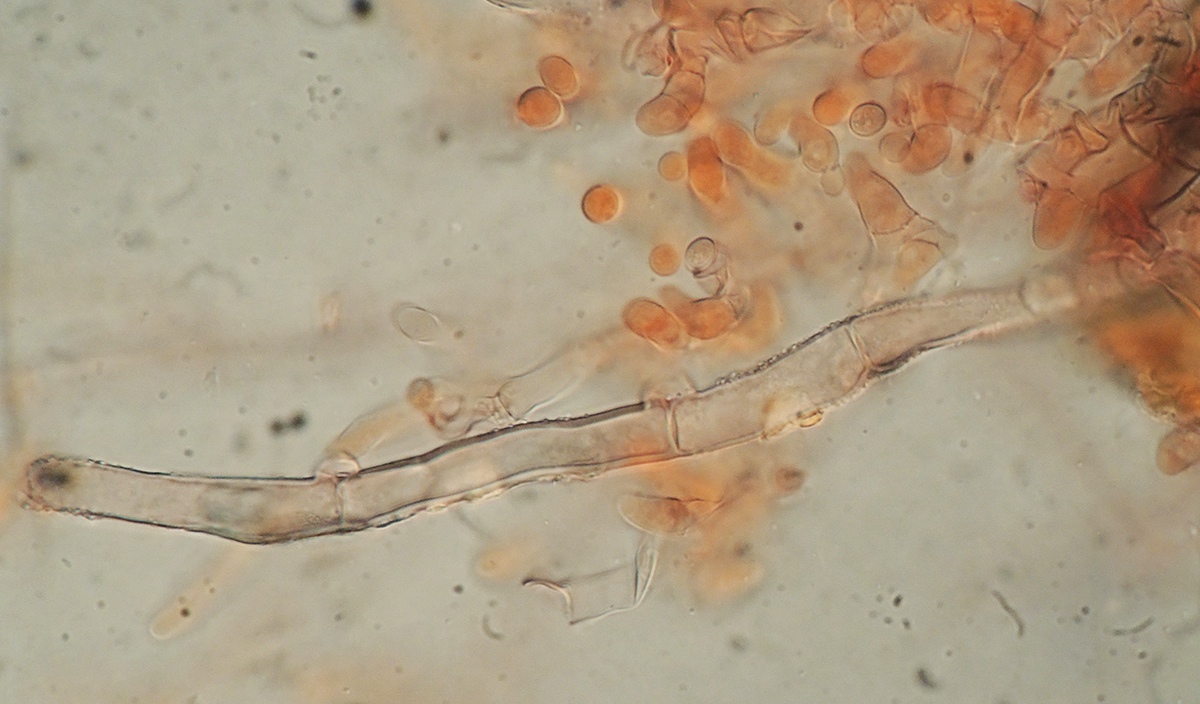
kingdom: Fungi
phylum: Basidiomycota
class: Agaricomycetes
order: Polyporales
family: Meruliaceae
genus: Gyrophanopsis
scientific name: Gyrophanopsis polonensis
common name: langhåret kalkskind
